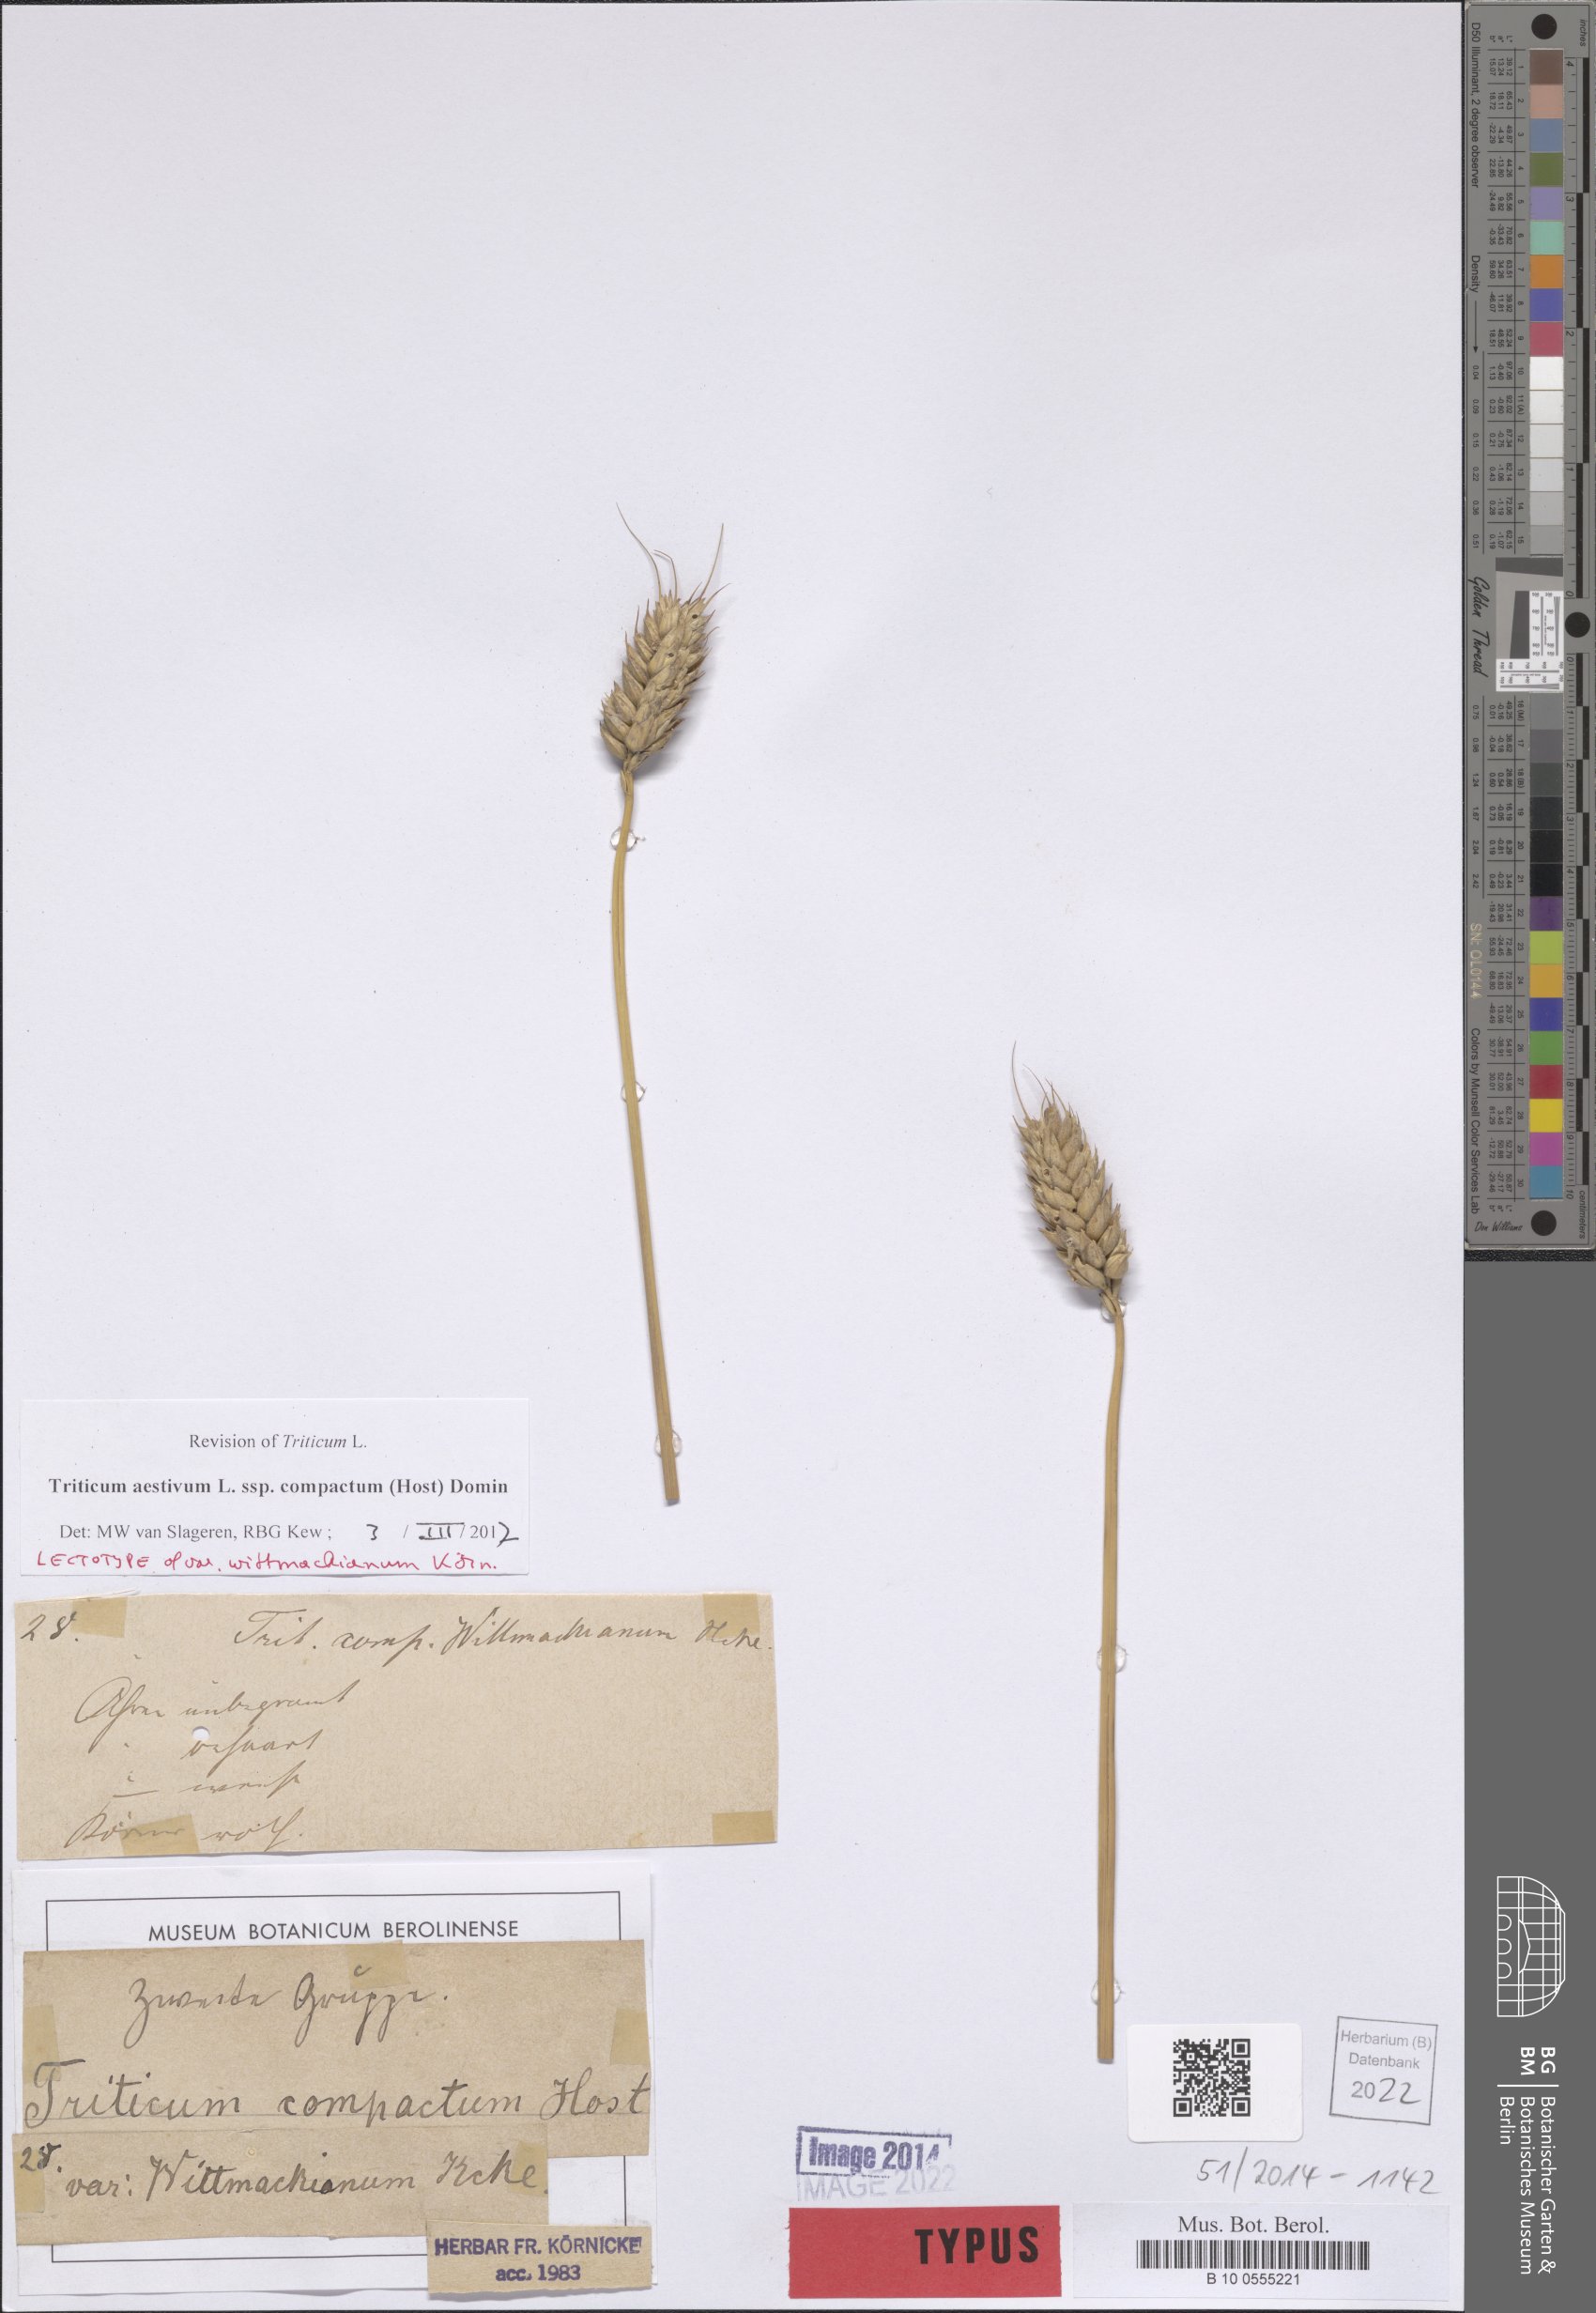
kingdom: Plantae
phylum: Tracheophyta
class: Liliopsida
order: Poales
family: Poaceae
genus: Triticum
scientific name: Triticum aestivum
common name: Common wheat
